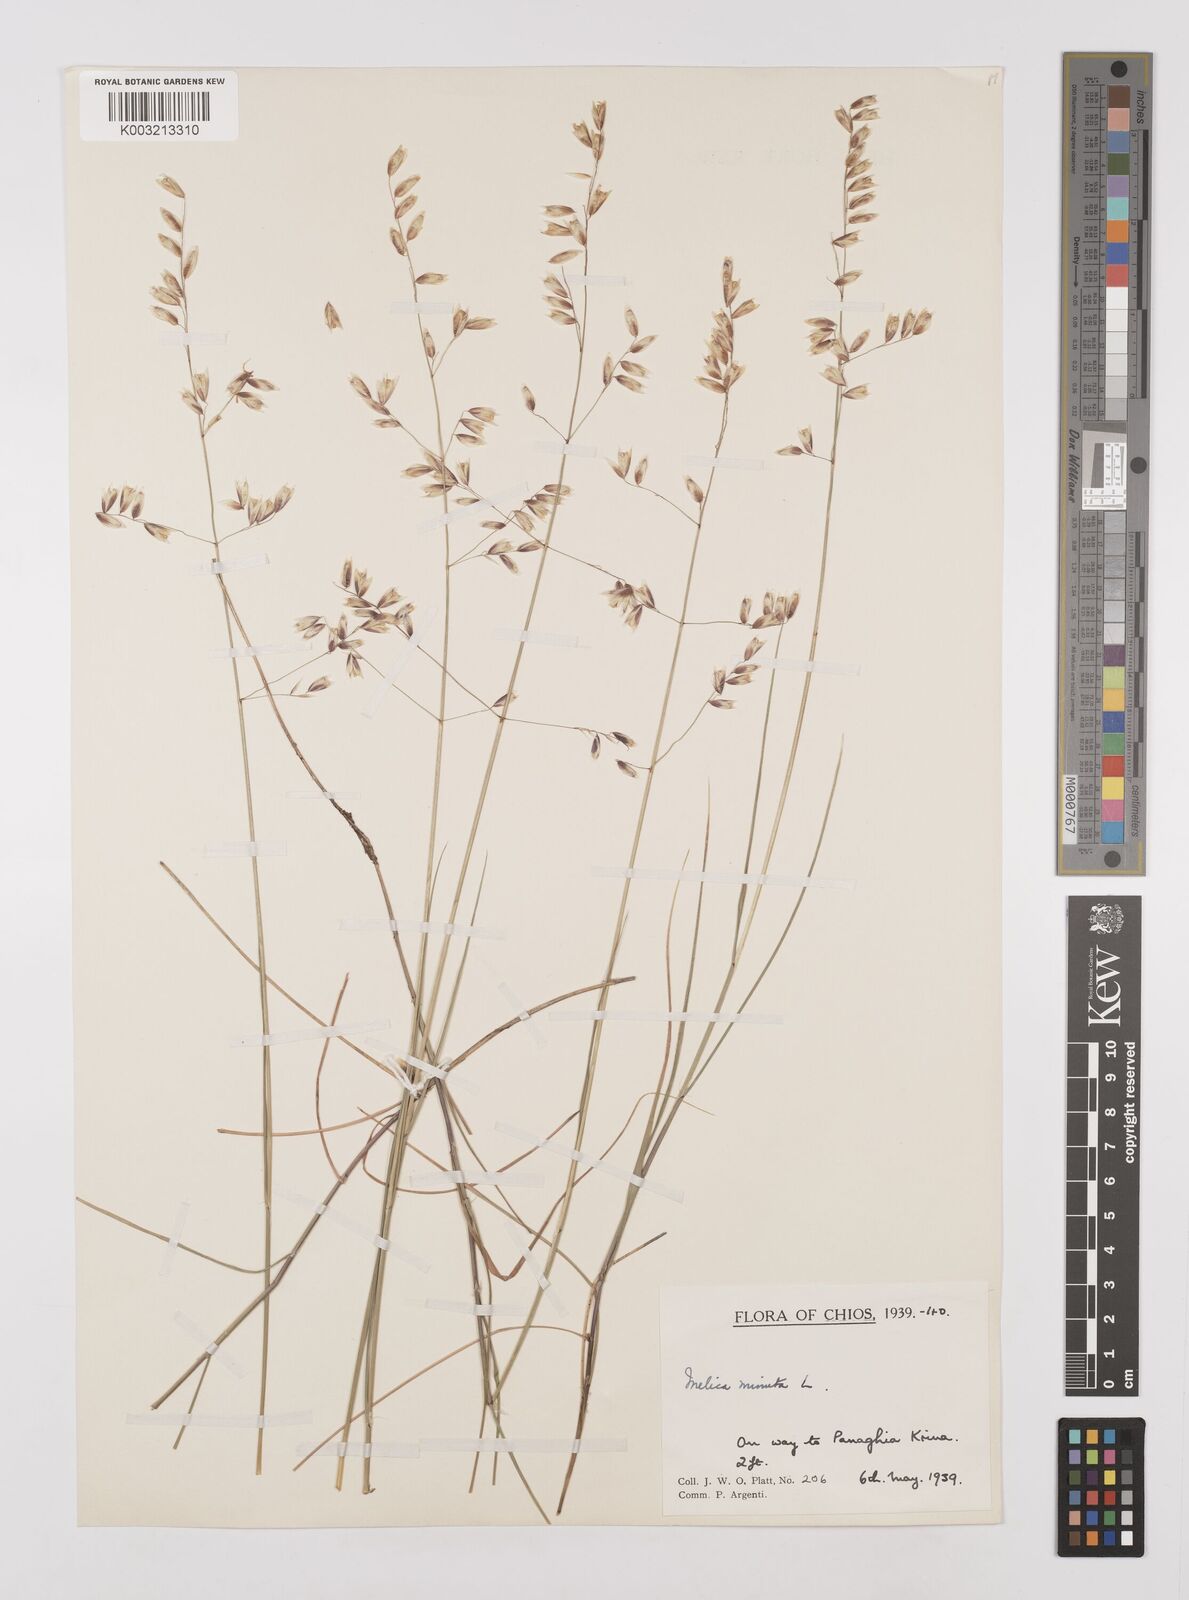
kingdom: Plantae
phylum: Tracheophyta
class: Liliopsida
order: Poales
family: Poaceae
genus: Melica
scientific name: Melica minuta
